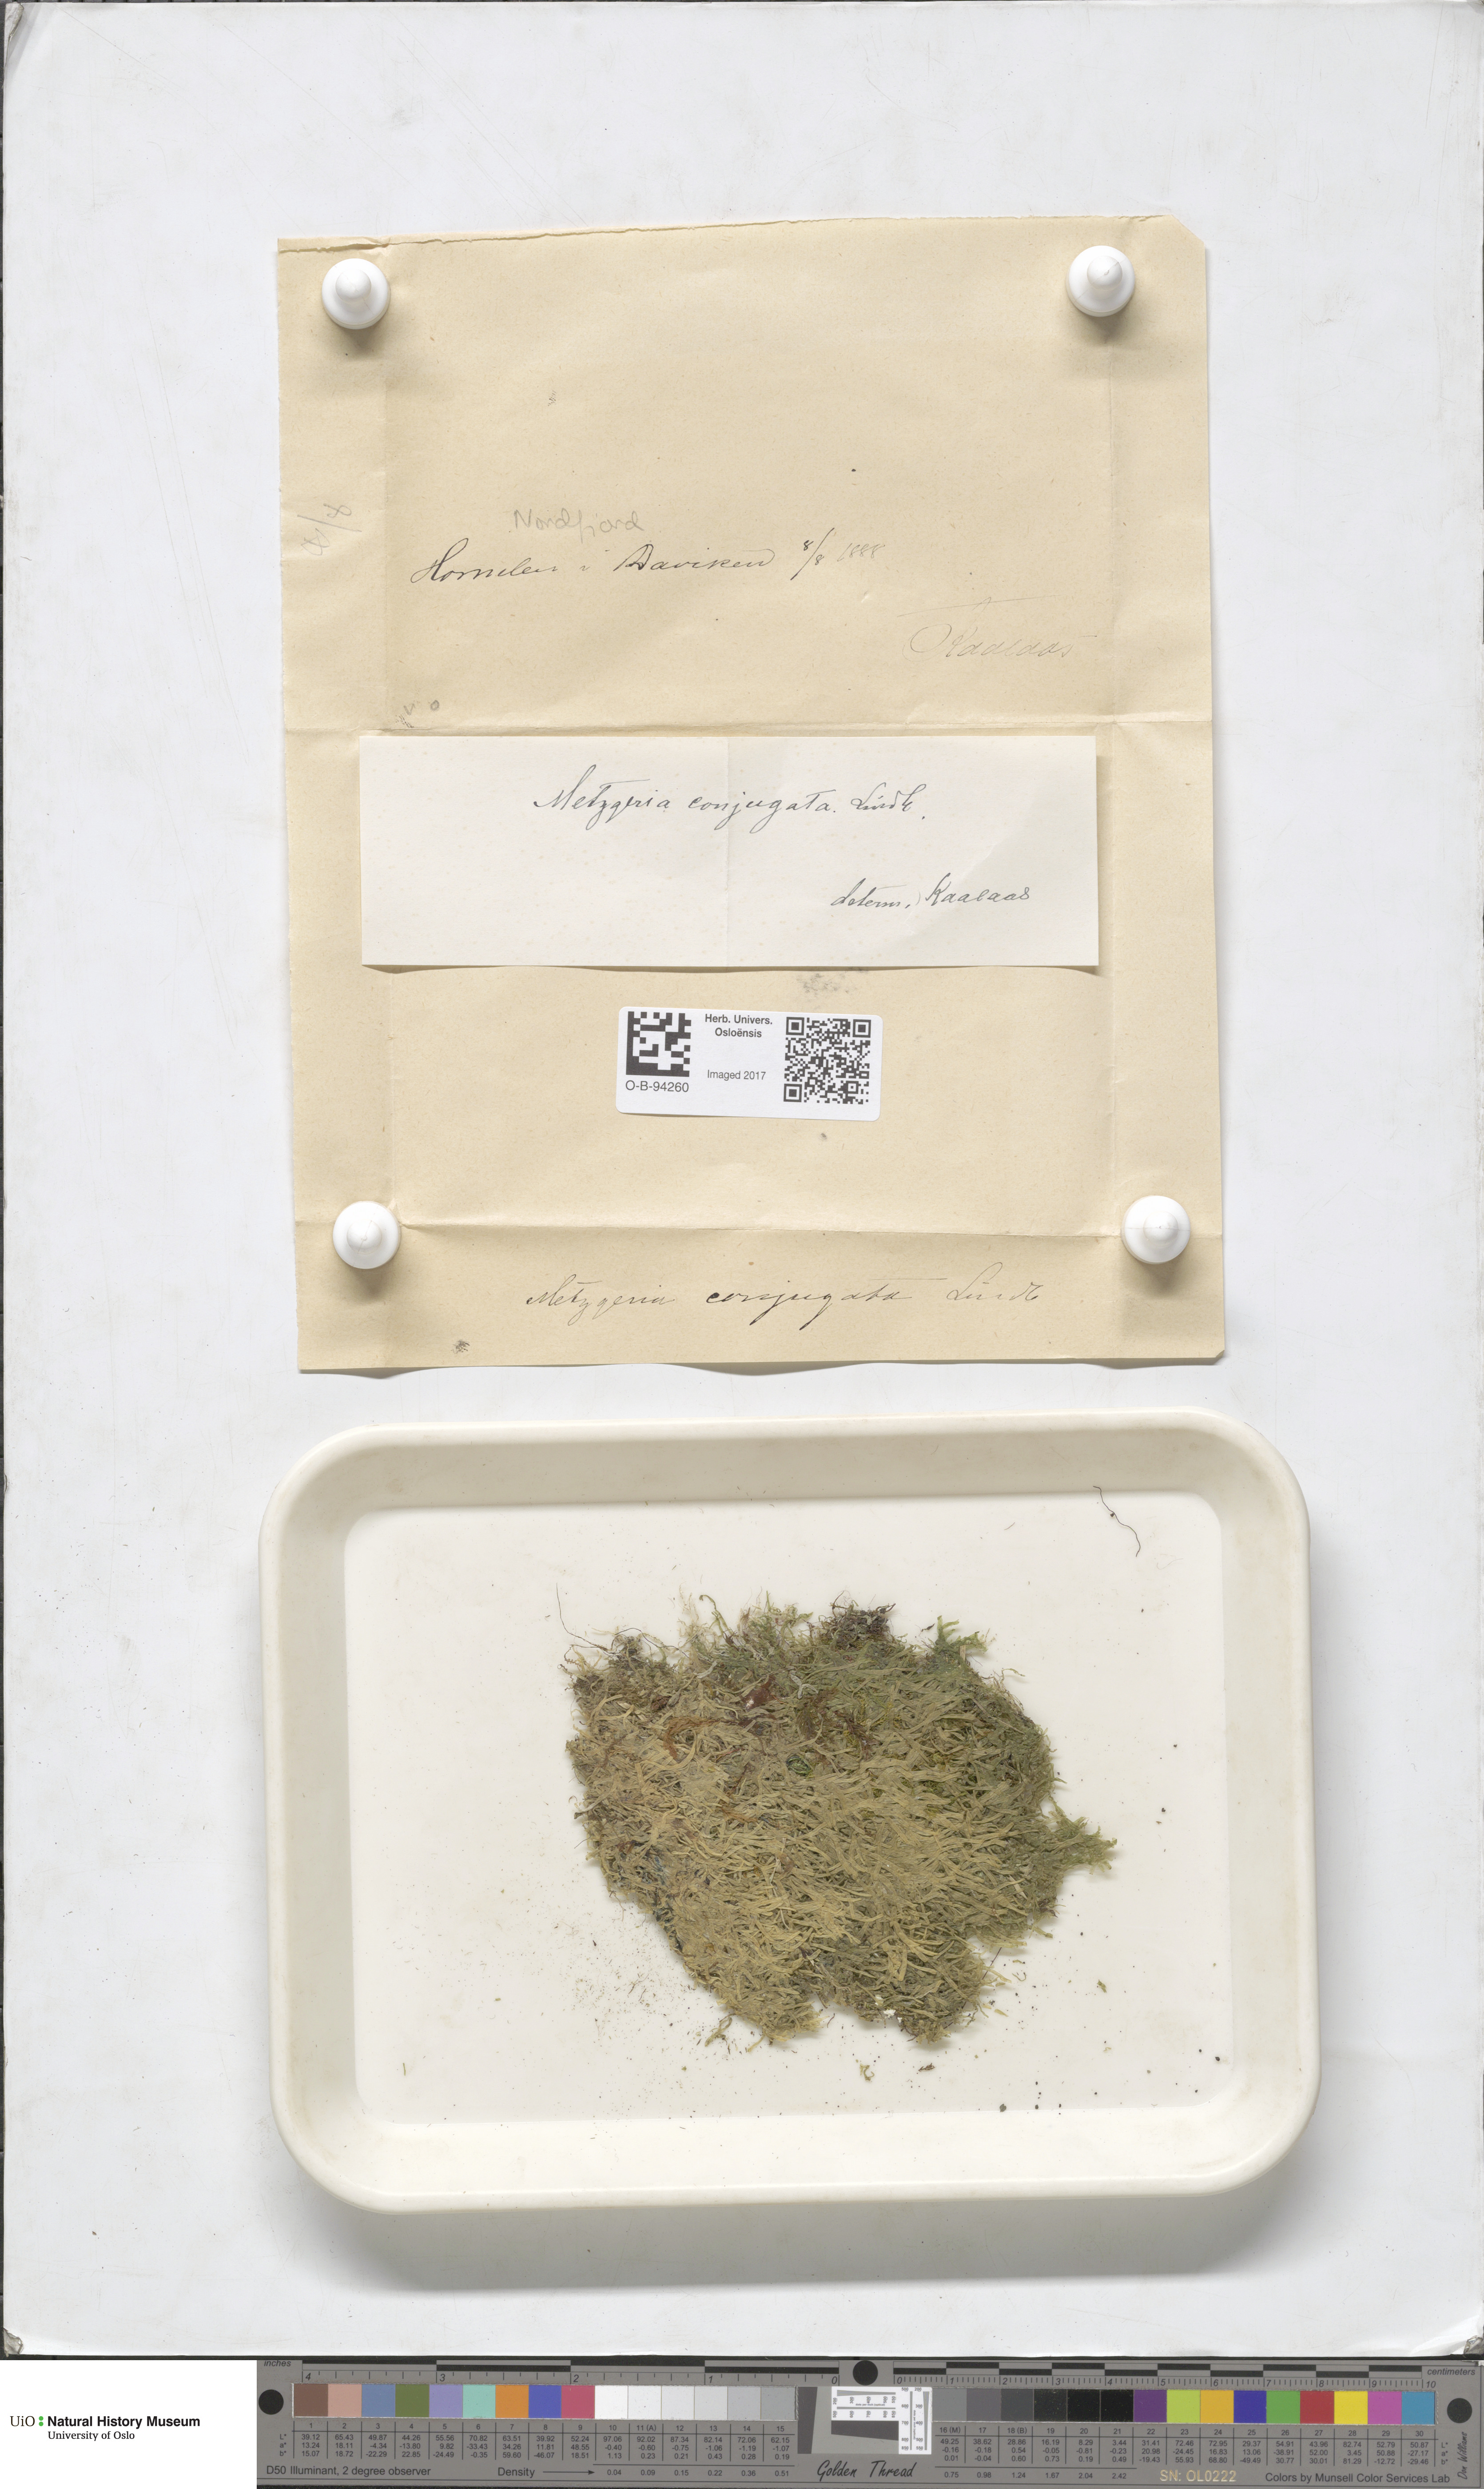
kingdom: Plantae
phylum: Marchantiophyta
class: Jungermanniopsida
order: Metzgeriales
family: Metzgeriaceae
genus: Metzgeria
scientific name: Metzgeria conjugata
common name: Rock veilwort
